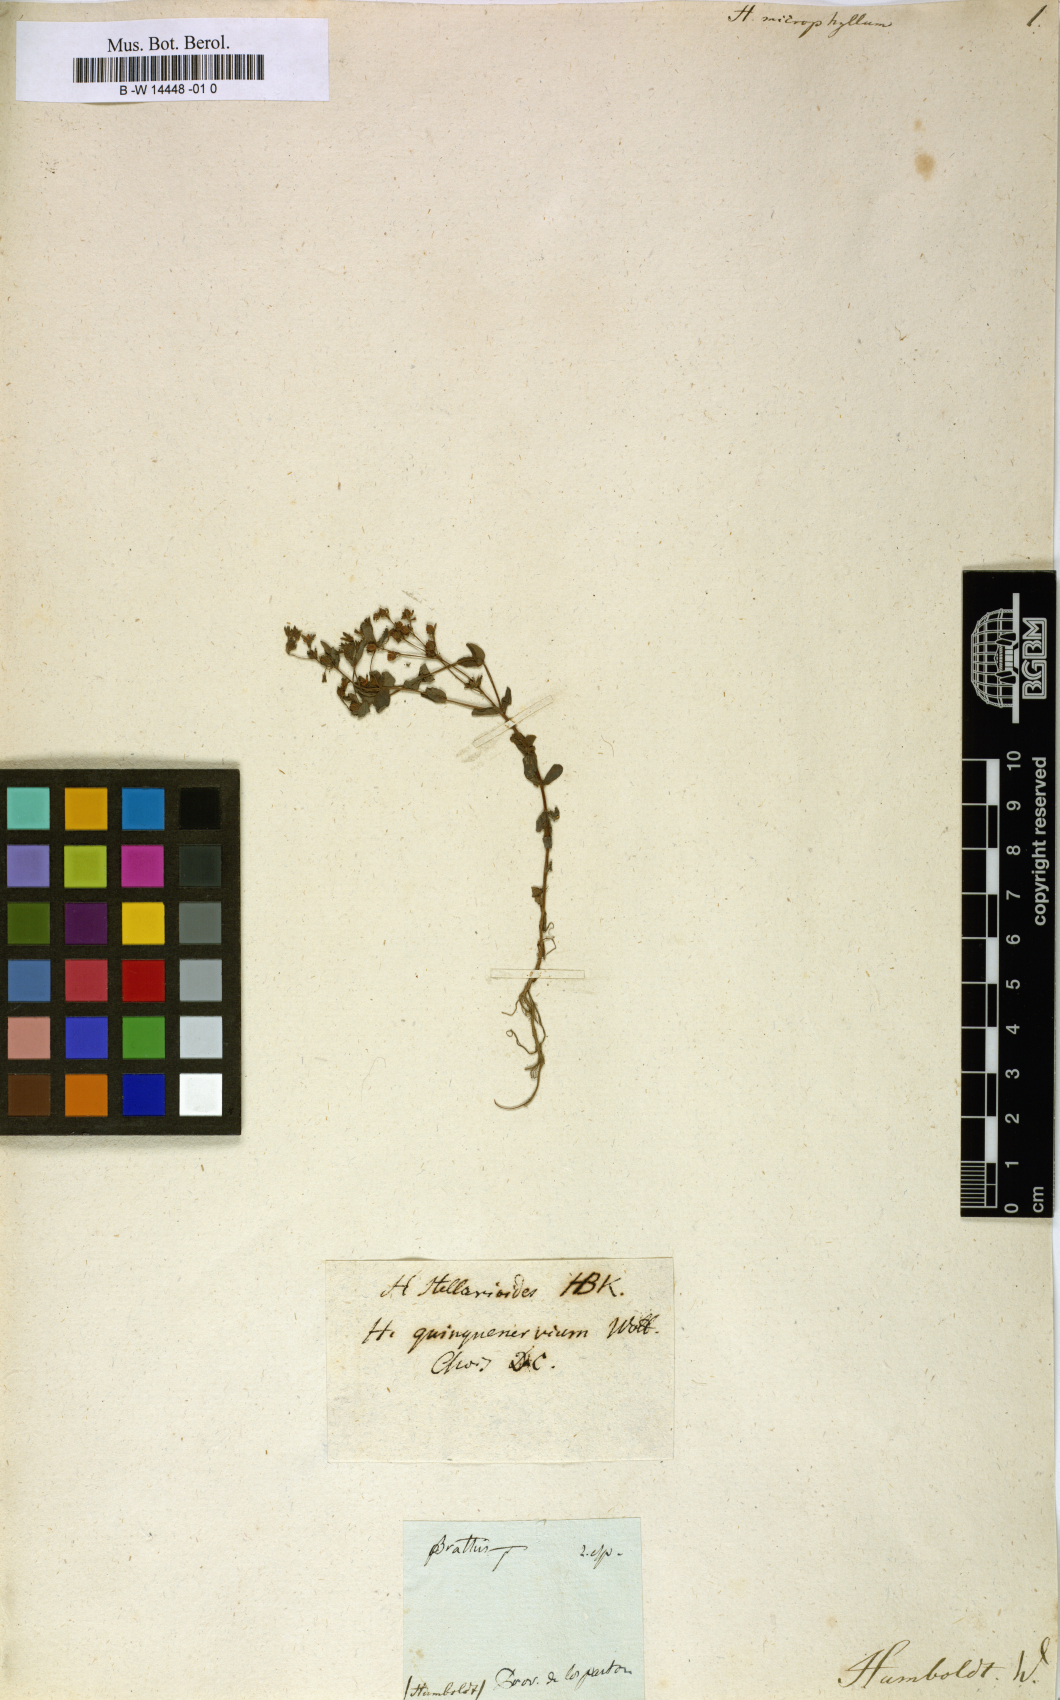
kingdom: Plantae
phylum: Tracheophyta
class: Magnoliopsida
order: Malpighiales
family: Hypericaceae
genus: Hypericum
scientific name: Hypericum veronense
